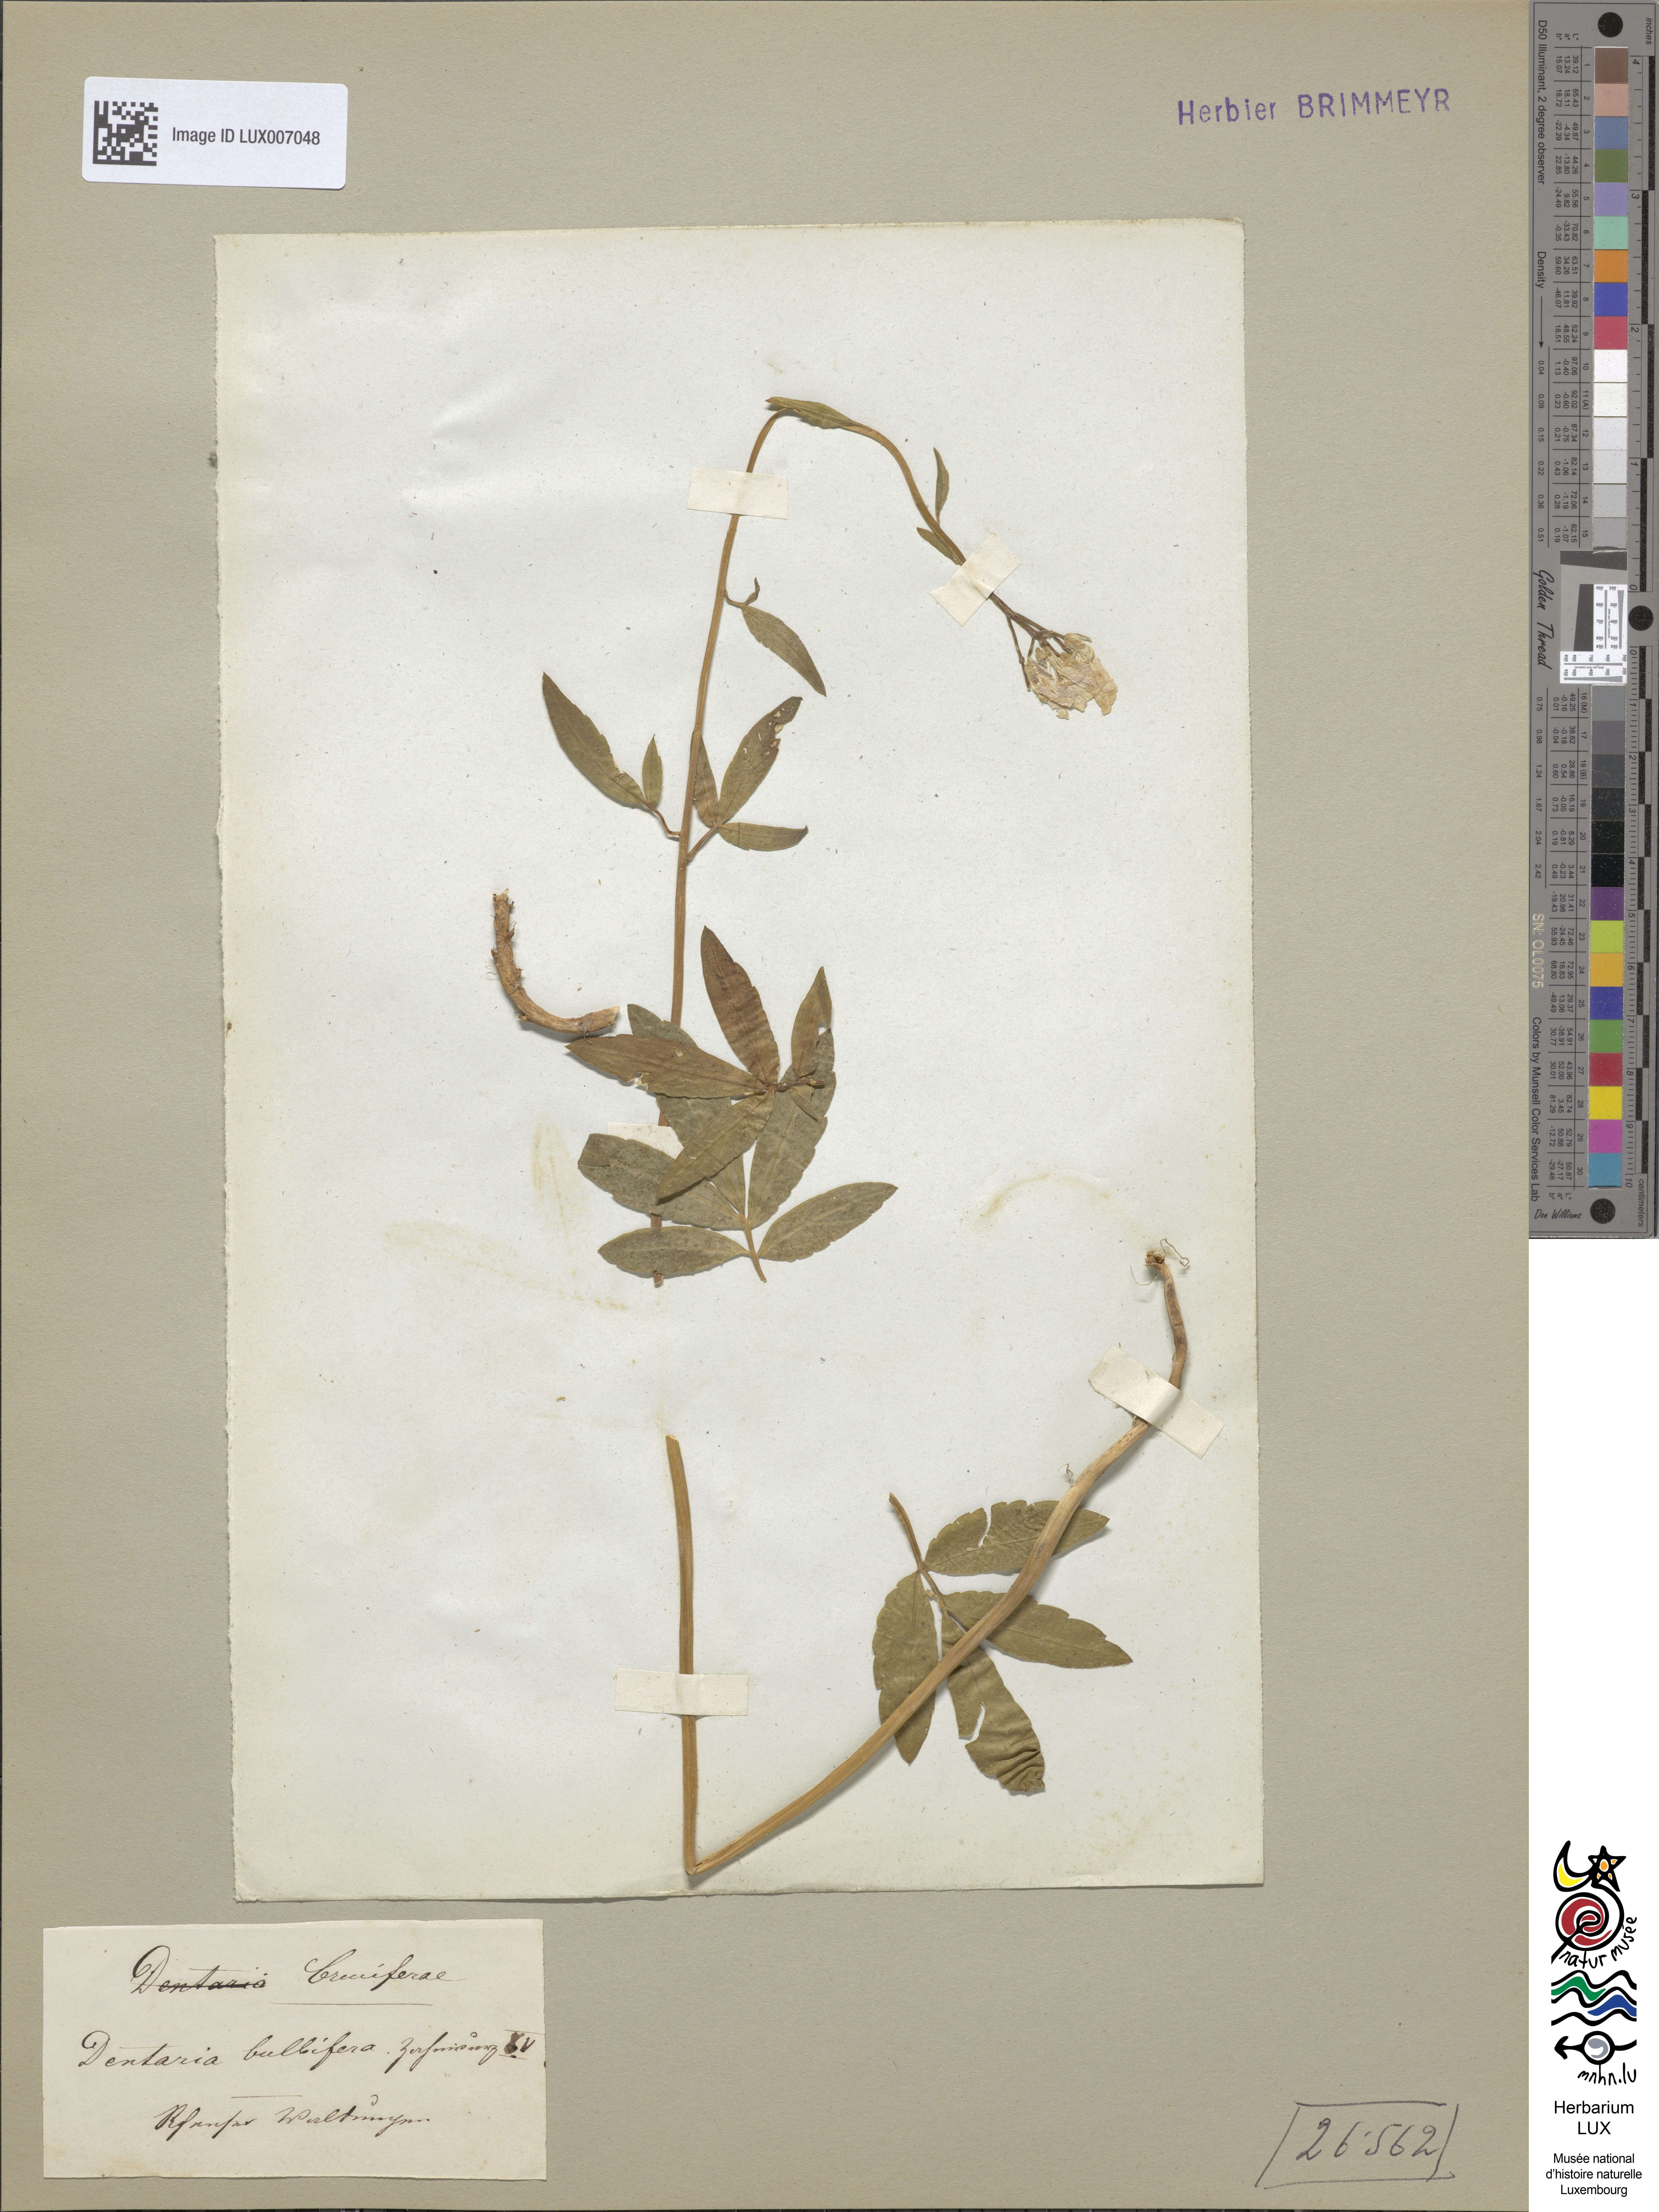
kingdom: Plantae
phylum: Tracheophyta
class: Magnoliopsida
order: Brassicales
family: Brassicaceae
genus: Cardamine
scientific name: Cardamine bulbifera
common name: Coralroot bittercress
